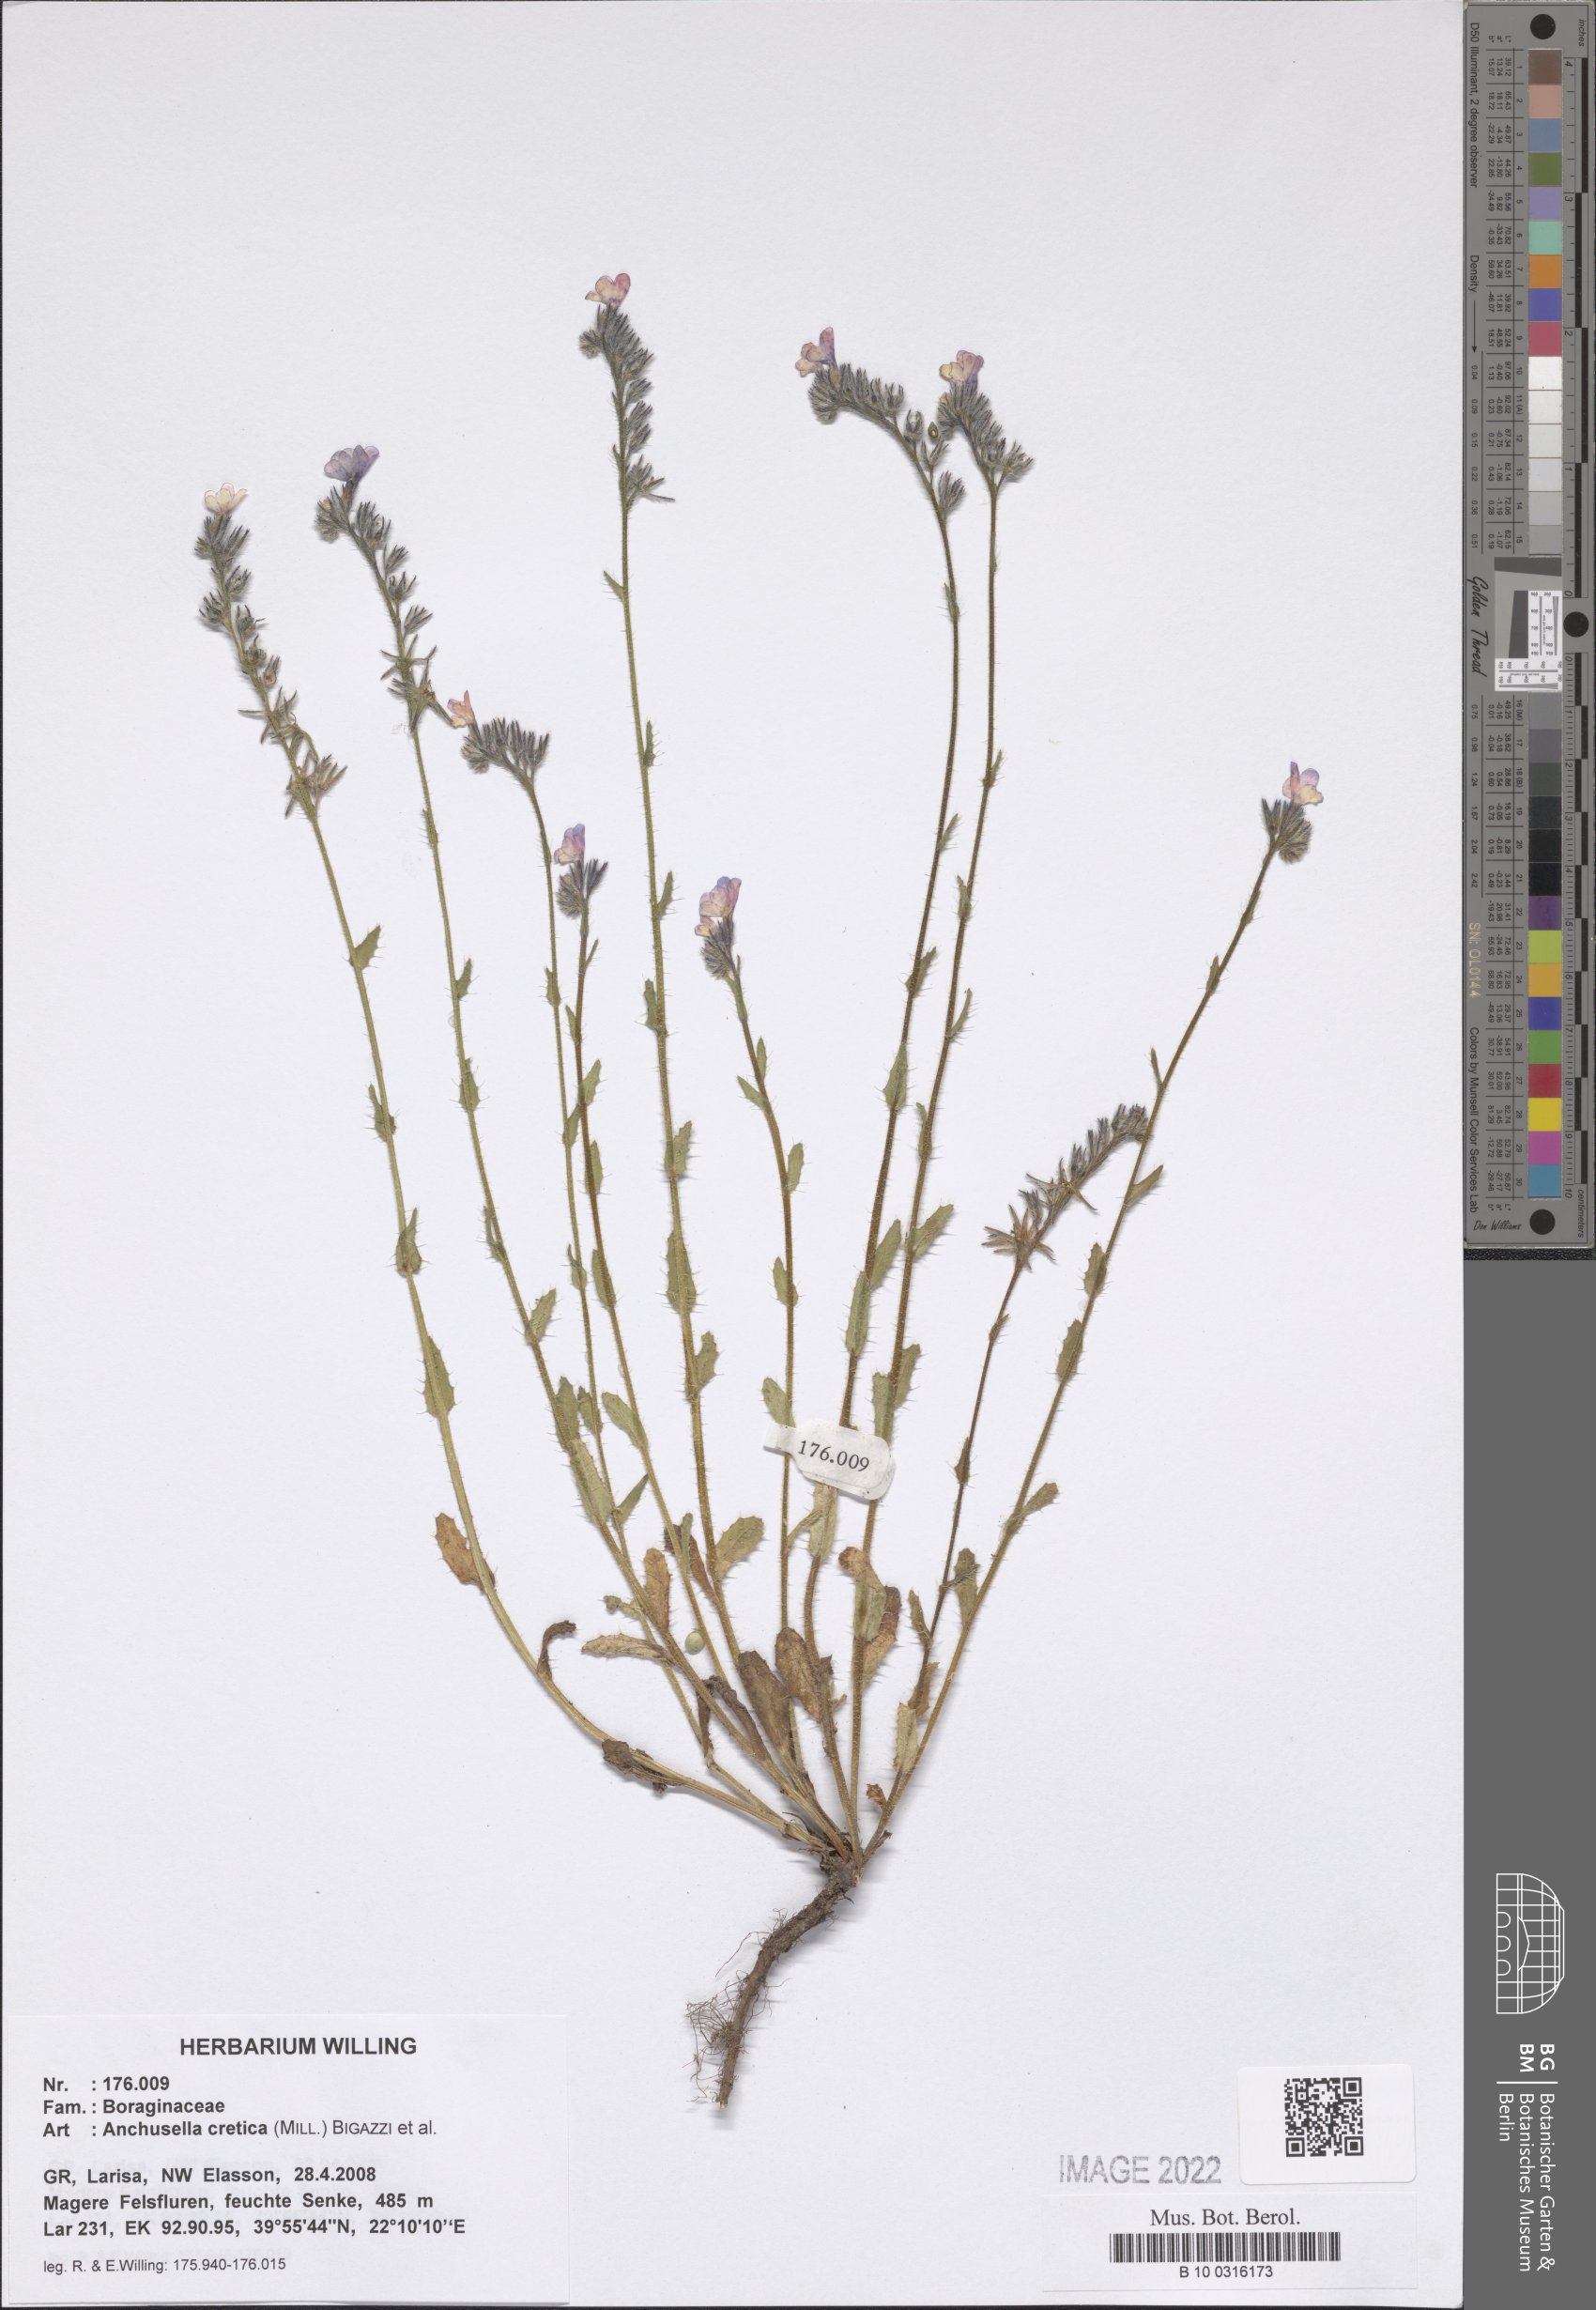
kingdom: Plantae
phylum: Tracheophyta
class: Magnoliopsida
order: Boraginales
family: Boraginaceae
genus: Anchusella
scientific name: Anchusella cretica
